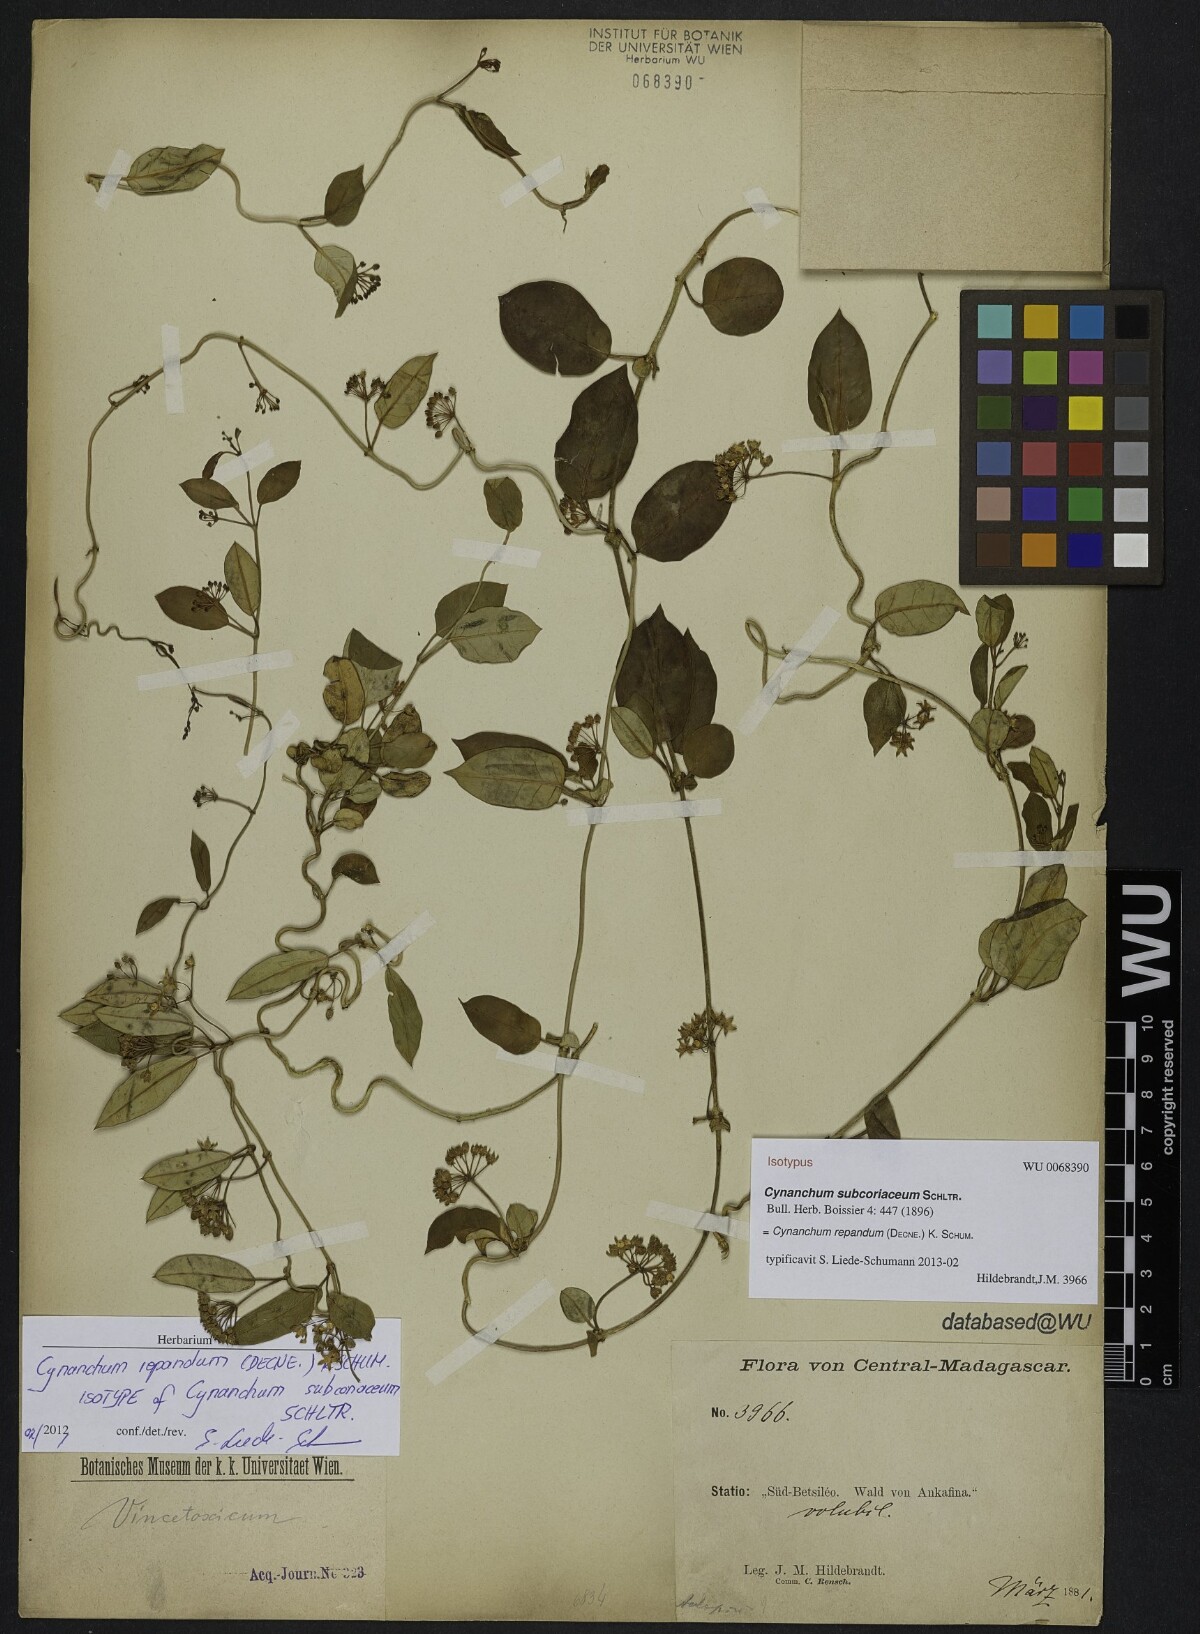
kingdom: Plantae
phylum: Tracheophyta
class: Magnoliopsida
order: Gentianales
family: Apocynaceae
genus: Cynanchum
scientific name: Cynanchum repandum
